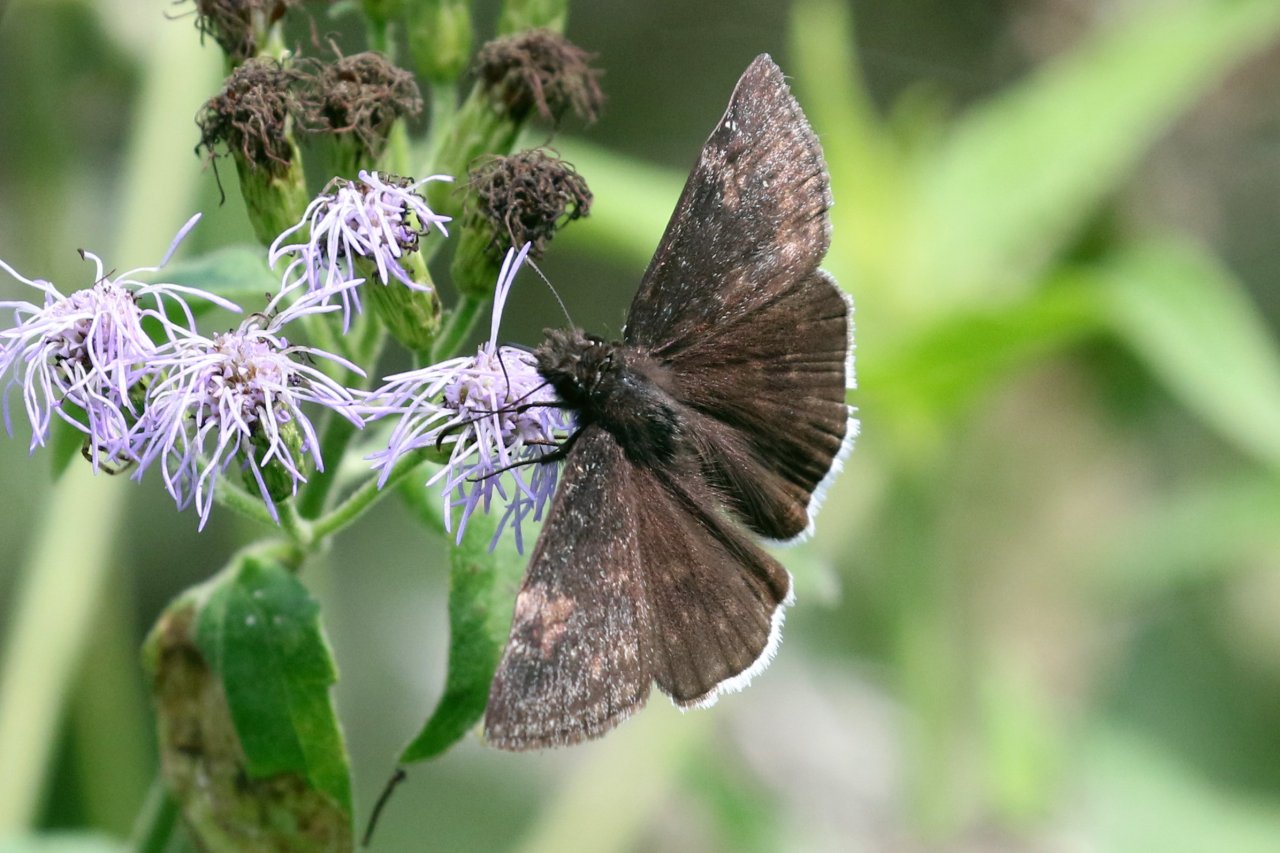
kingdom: Animalia
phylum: Arthropoda
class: Insecta
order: Lepidoptera
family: Hesperiidae
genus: Erynnis
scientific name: Erynnis funeralis
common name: Funereal Duskywing
